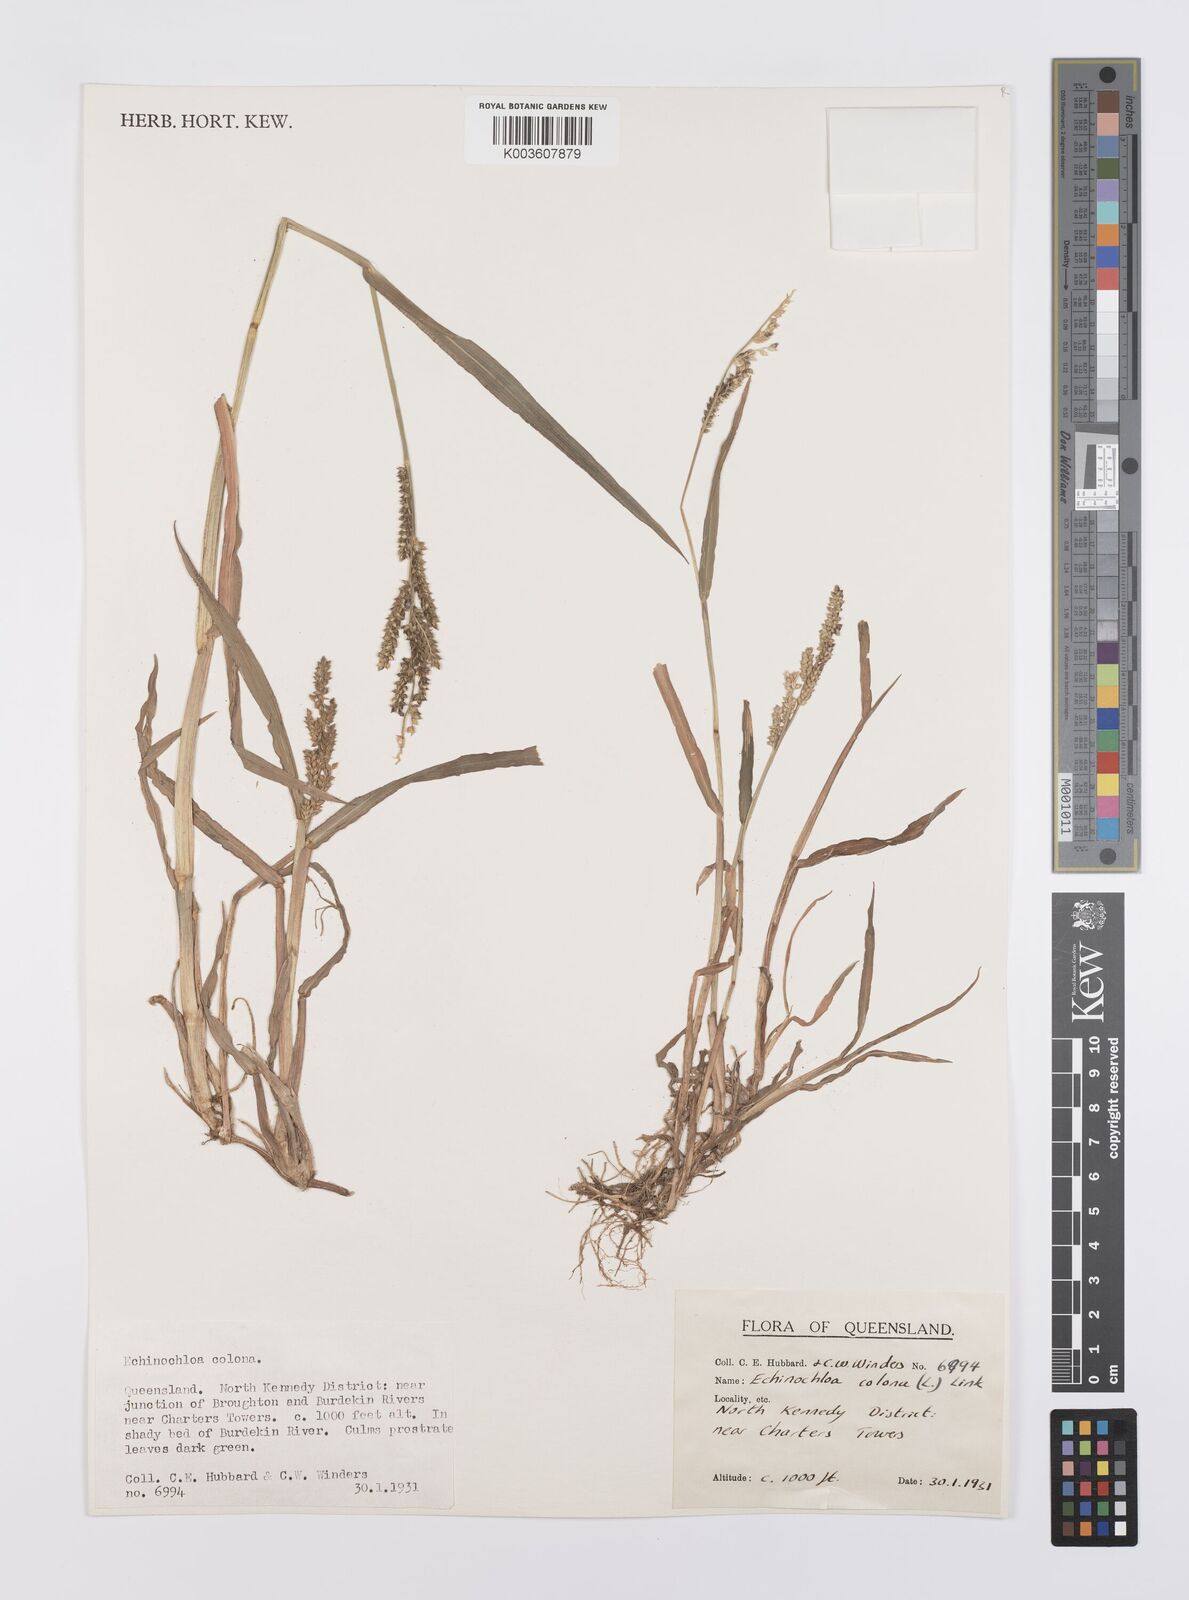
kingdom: Plantae
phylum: Tracheophyta
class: Liliopsida
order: Poales
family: Poaceae
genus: Echinochloa
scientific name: Echinochloa colonum
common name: Jungle rice
